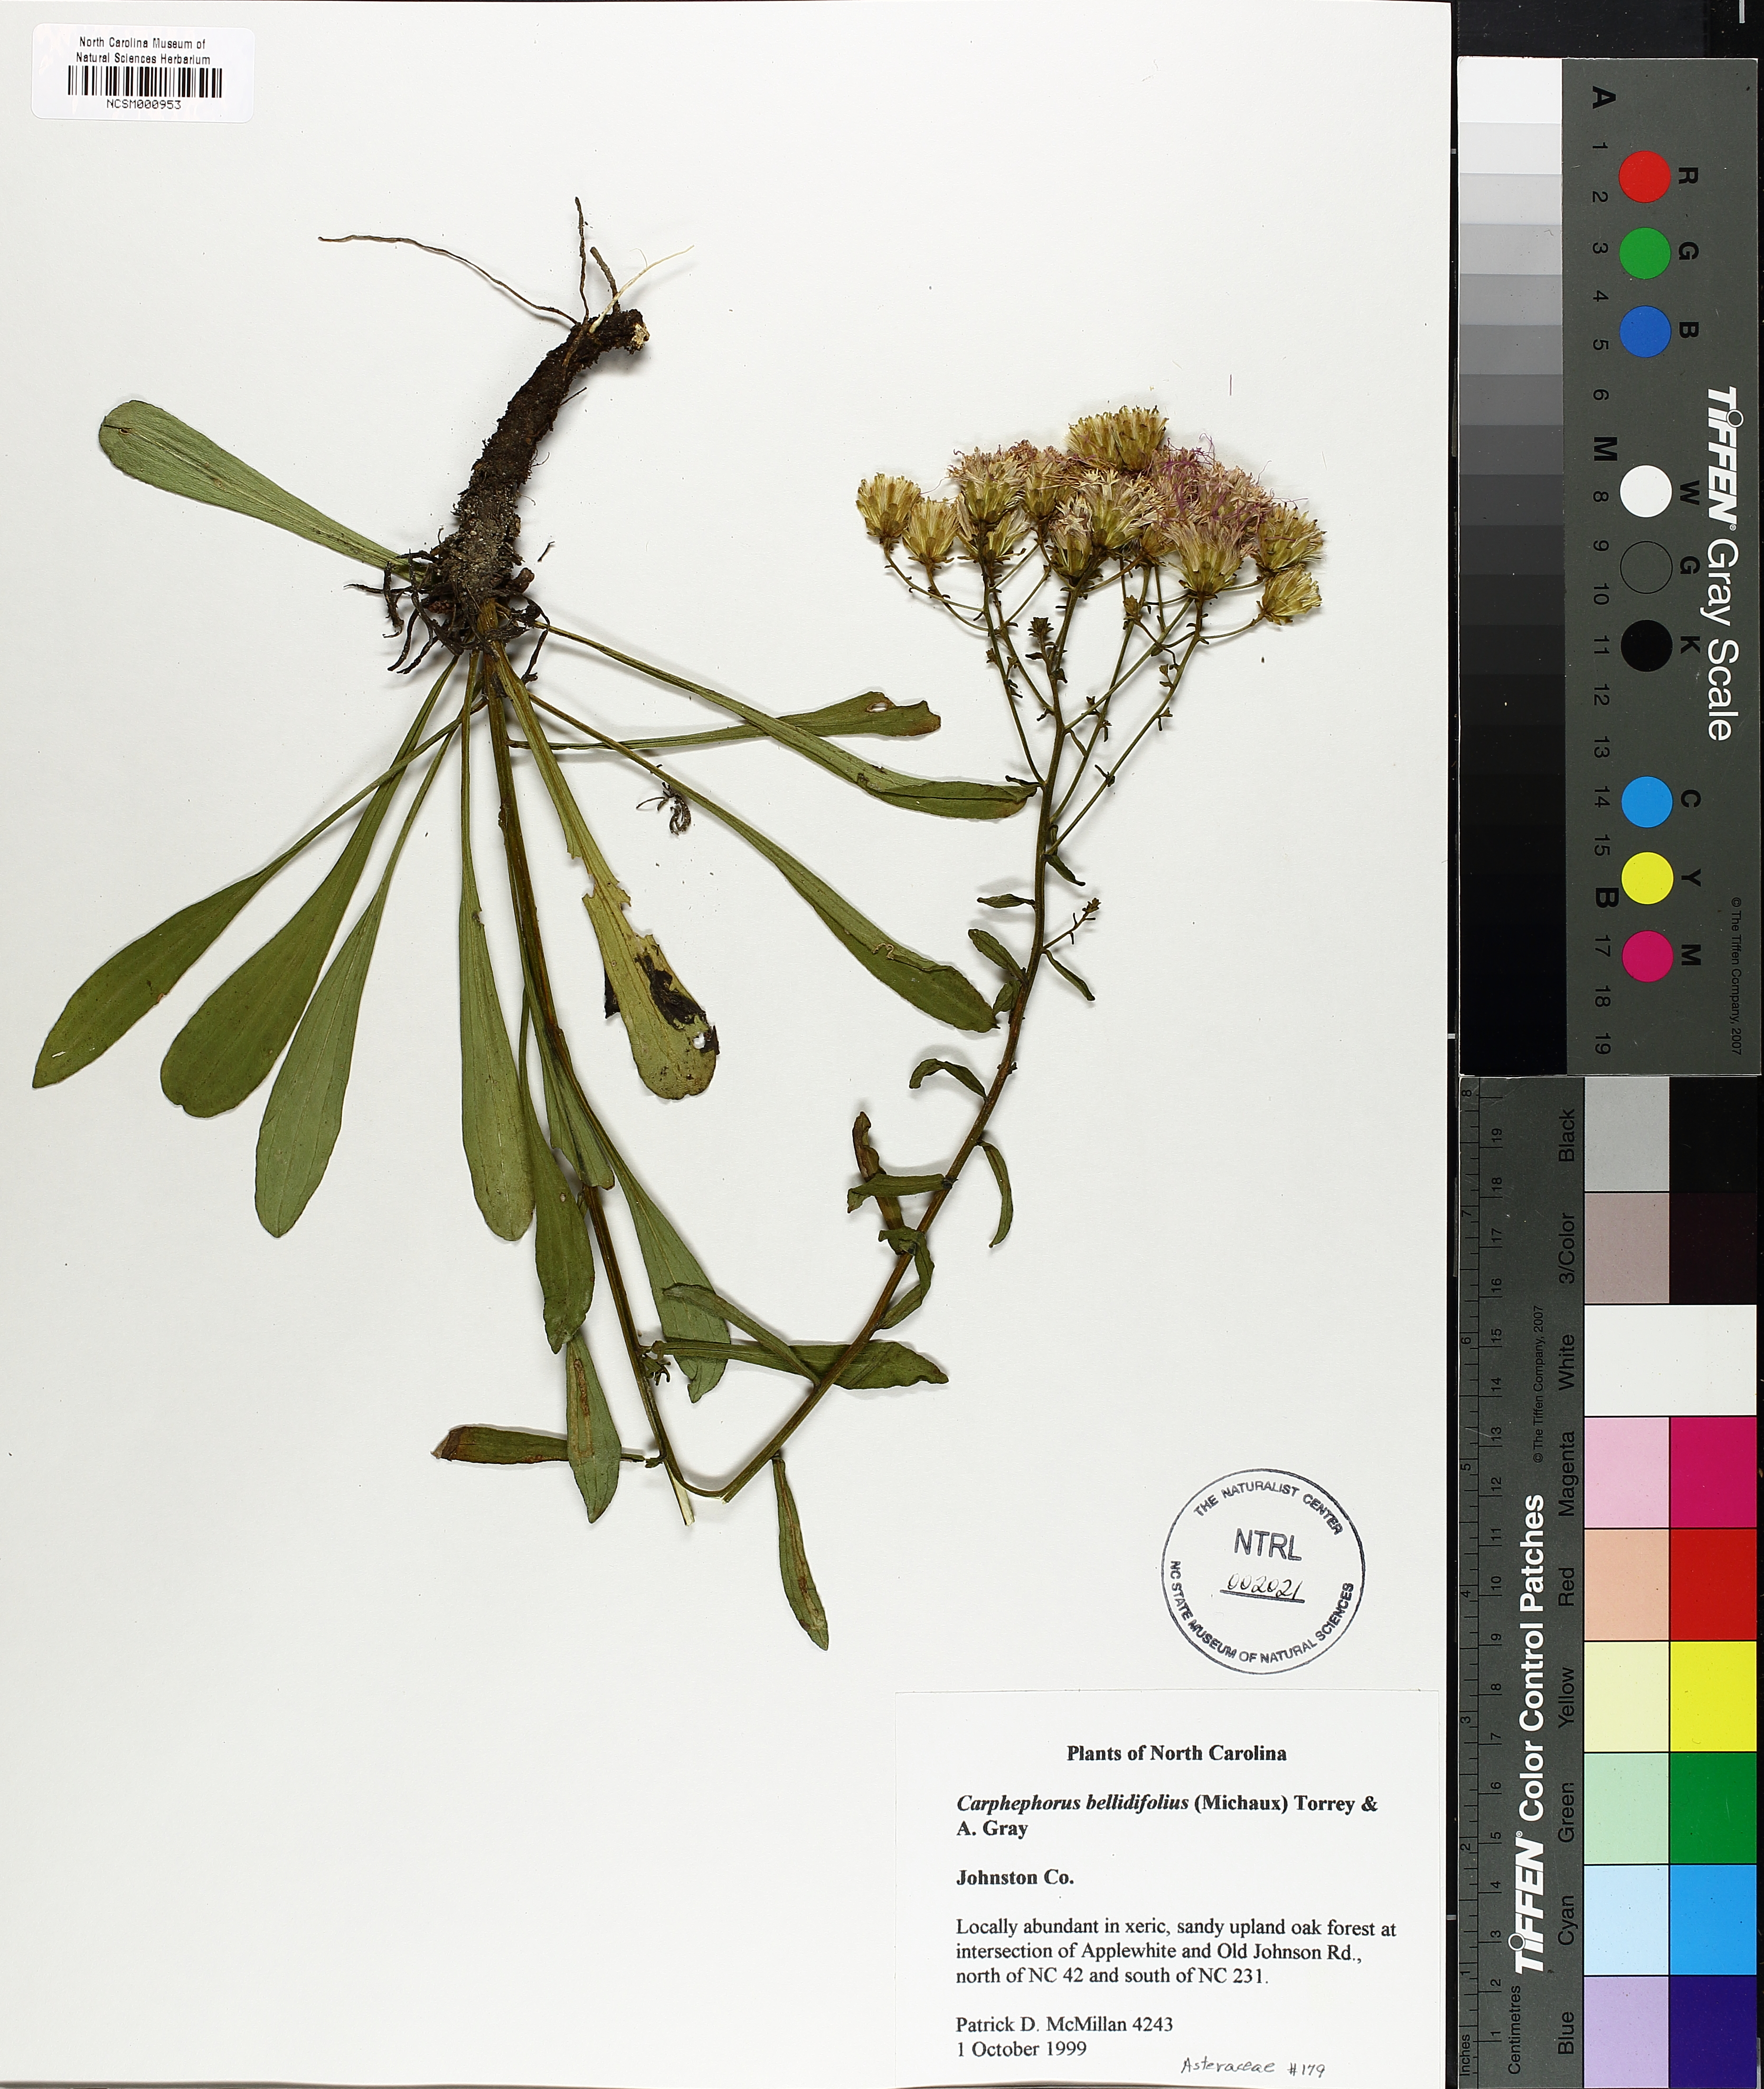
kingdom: Plantae
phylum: Tracheophyta
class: Magnoliopsida
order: Asterales
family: Asteraceae
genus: Carphephorus
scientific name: Carphephorus bellidifolius
